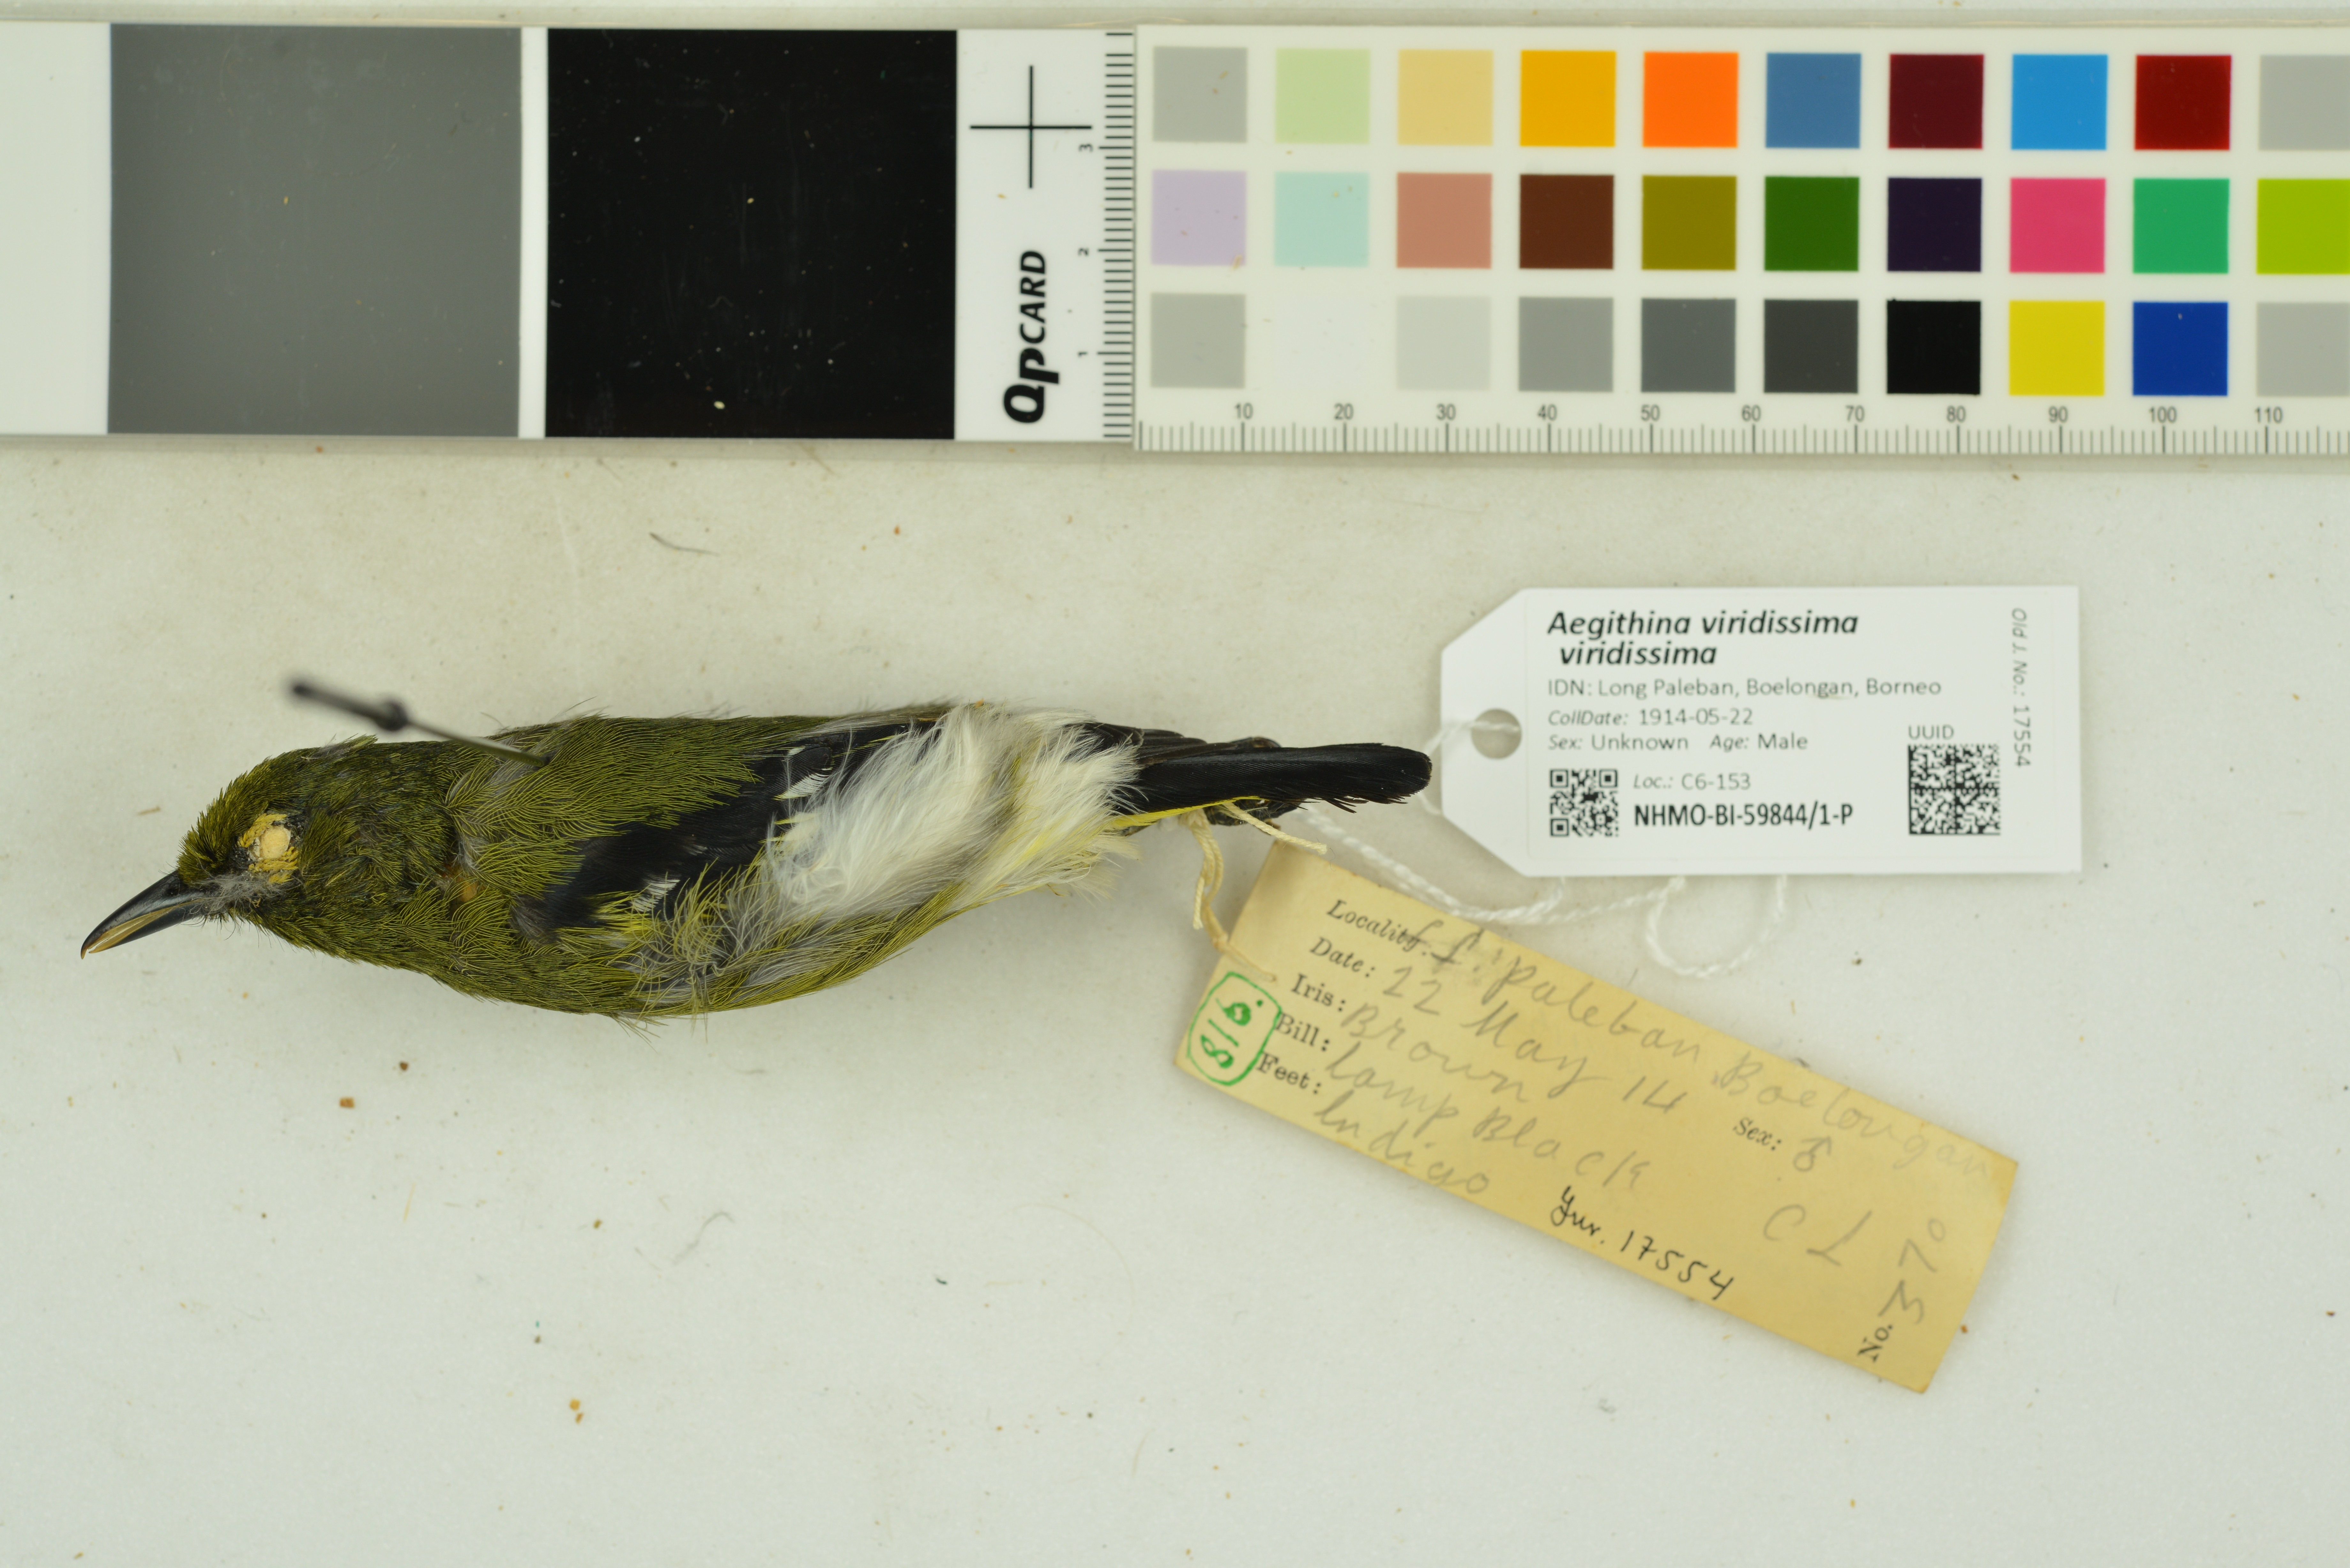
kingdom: Animalia
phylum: Chordata
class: Aves
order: Passeriformes
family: Aegithinidae
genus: Aegithina
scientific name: Aegithina viridissima
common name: Green iora
